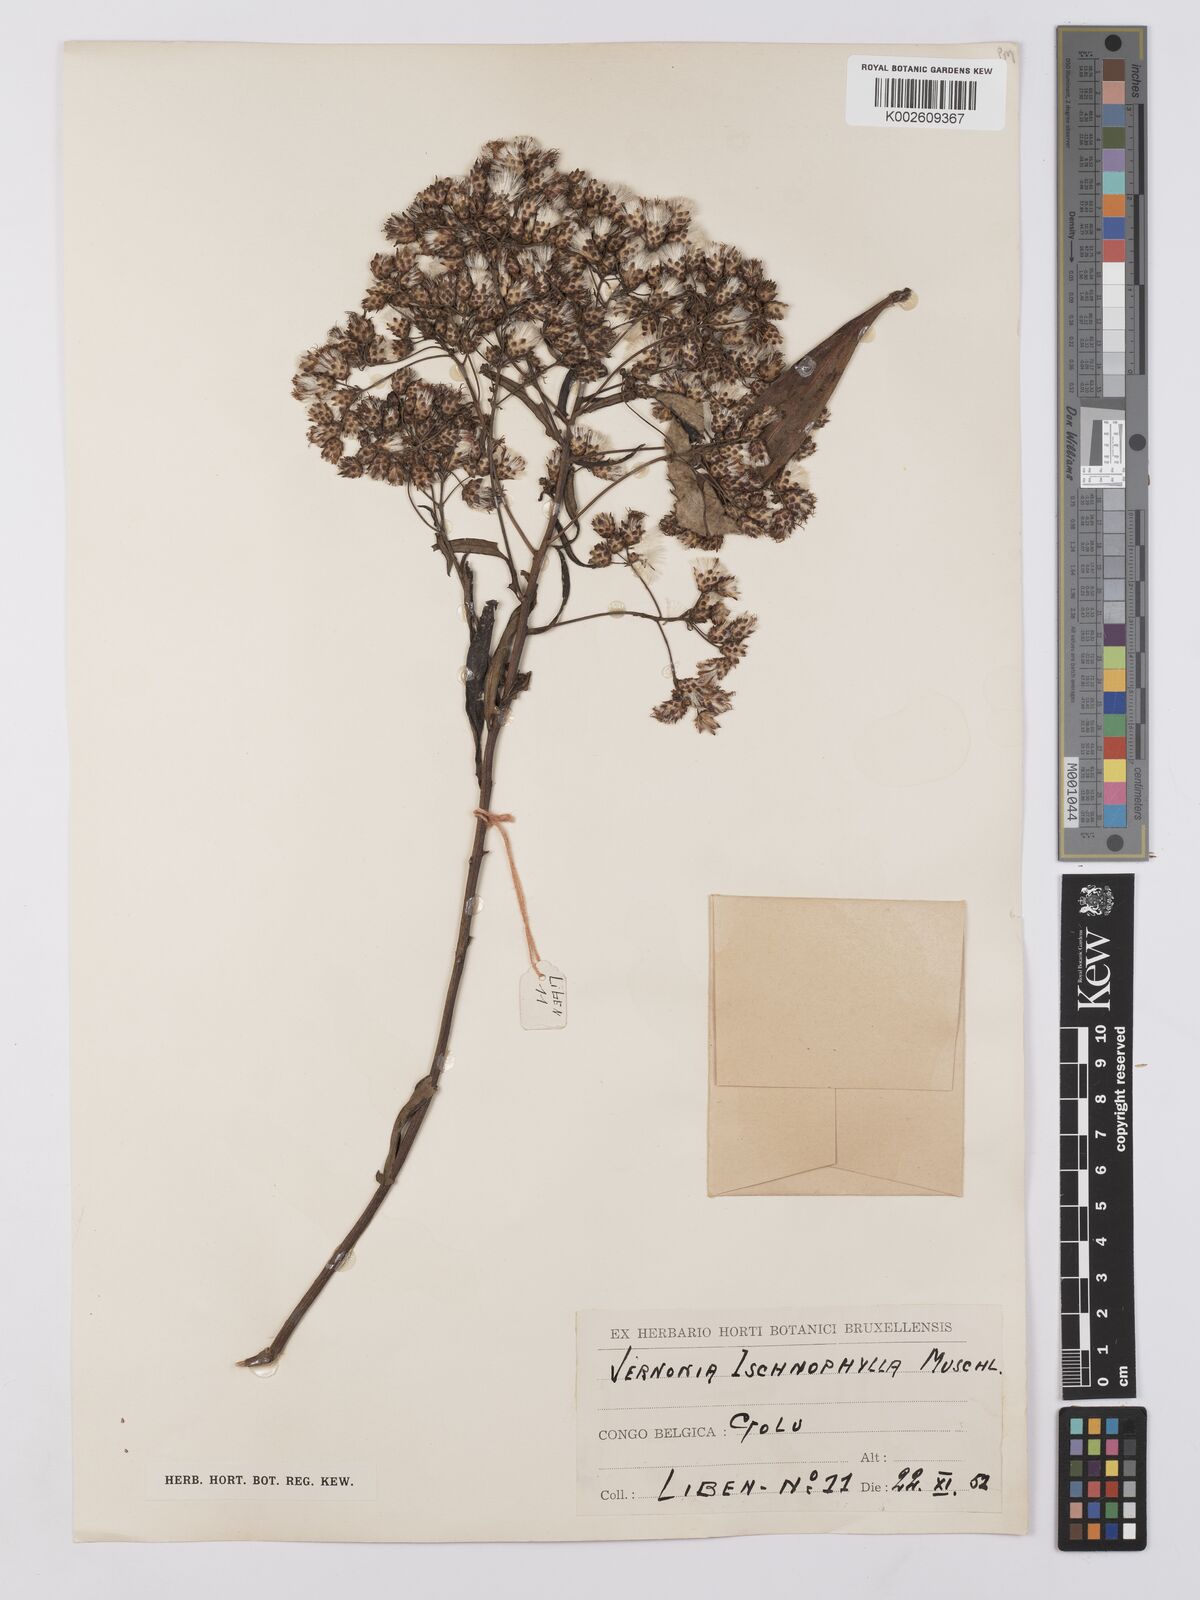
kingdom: Plantae
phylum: Tracheophyta
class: Magnoliopsida
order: Asterales
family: Asteraceae
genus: Vernonia
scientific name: Vernonia ischnophylla
